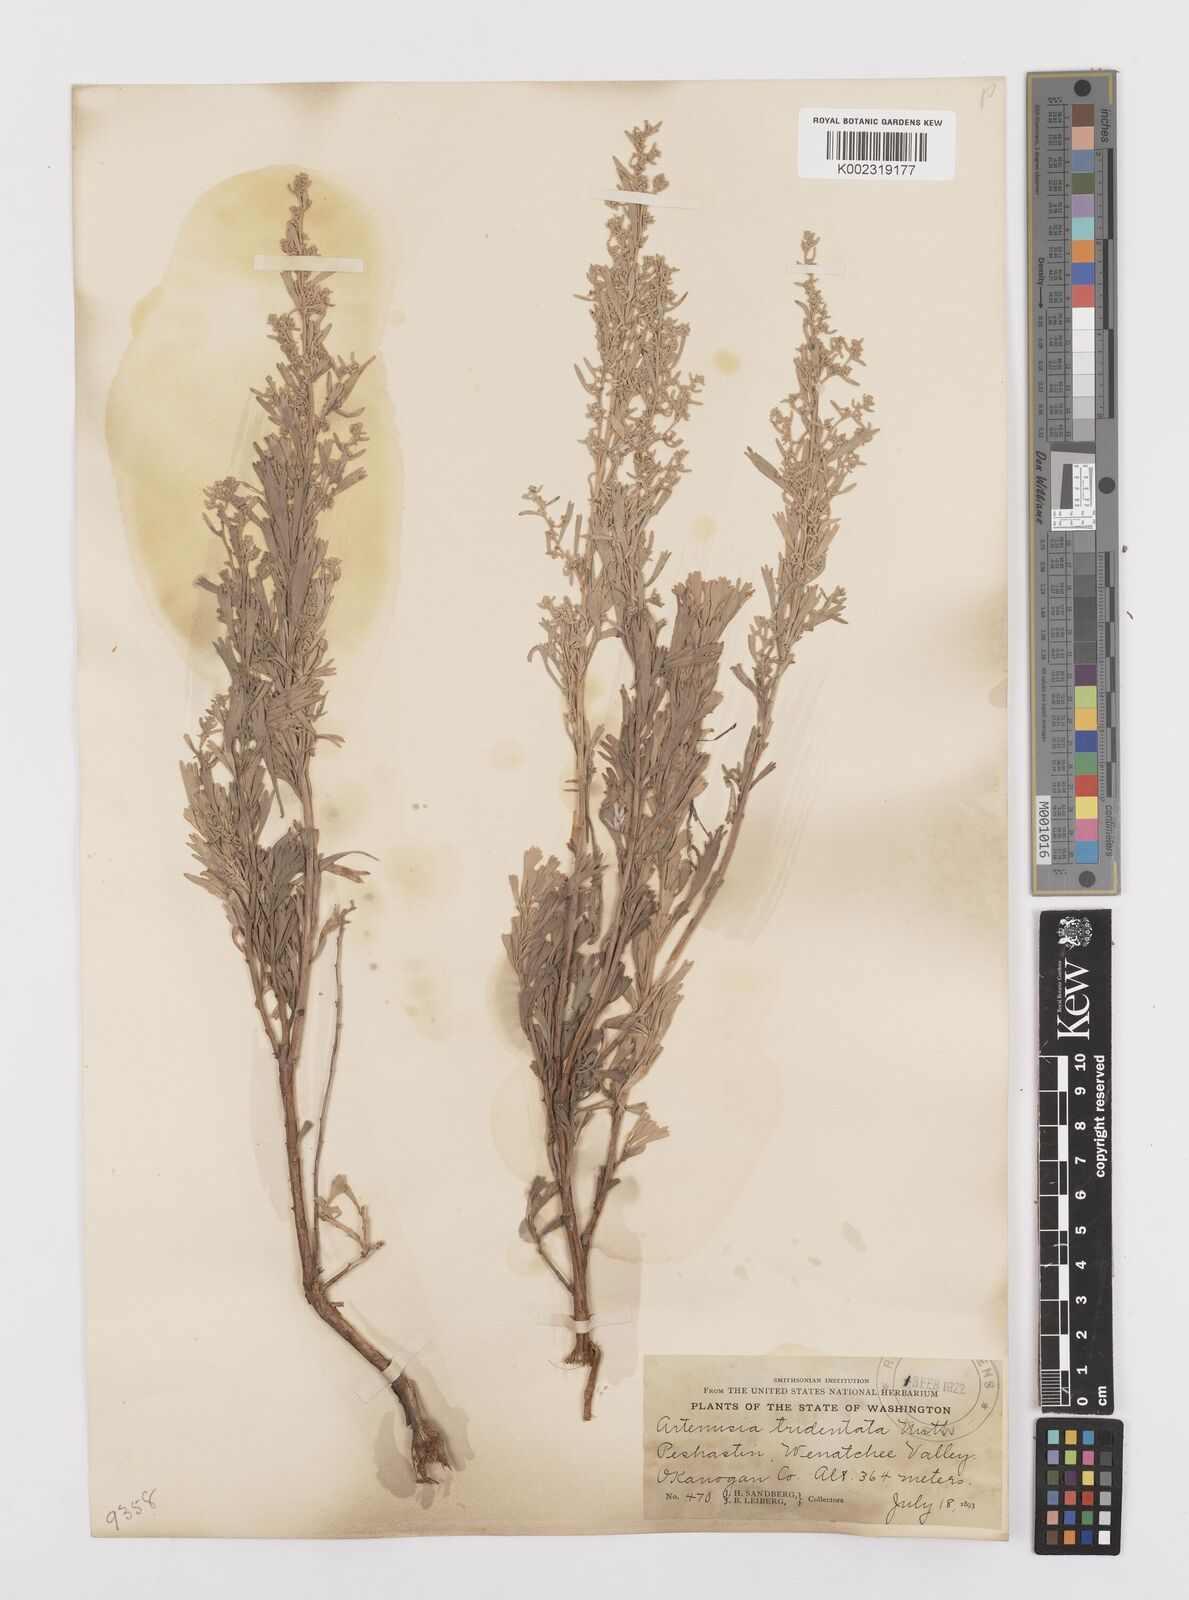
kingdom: Plantae
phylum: Tracheophyta
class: Magnoliopsida
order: Asterales
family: Asteraceae
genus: Artemisia
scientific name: Artemisia tridentata
